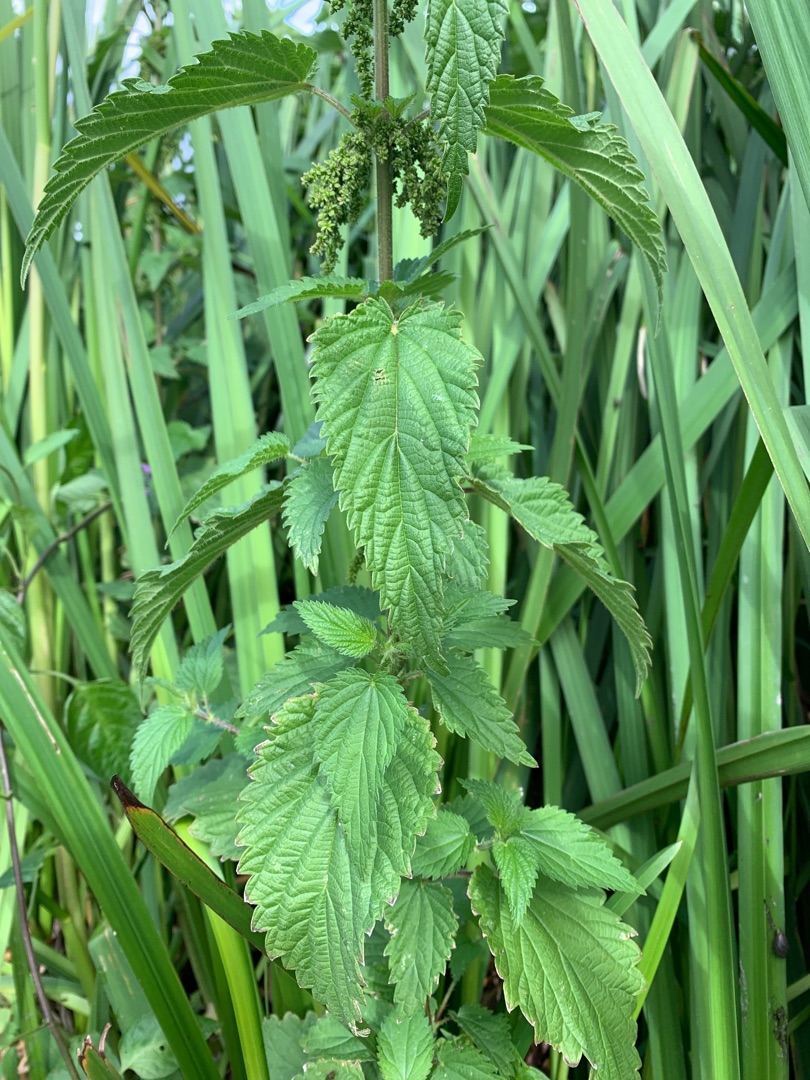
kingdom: Plantae
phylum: Tracheophyta
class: Magnoliopsida
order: Rosales
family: Urticaceae
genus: Urtica
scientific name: Urtica dioica
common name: Stor nælde
